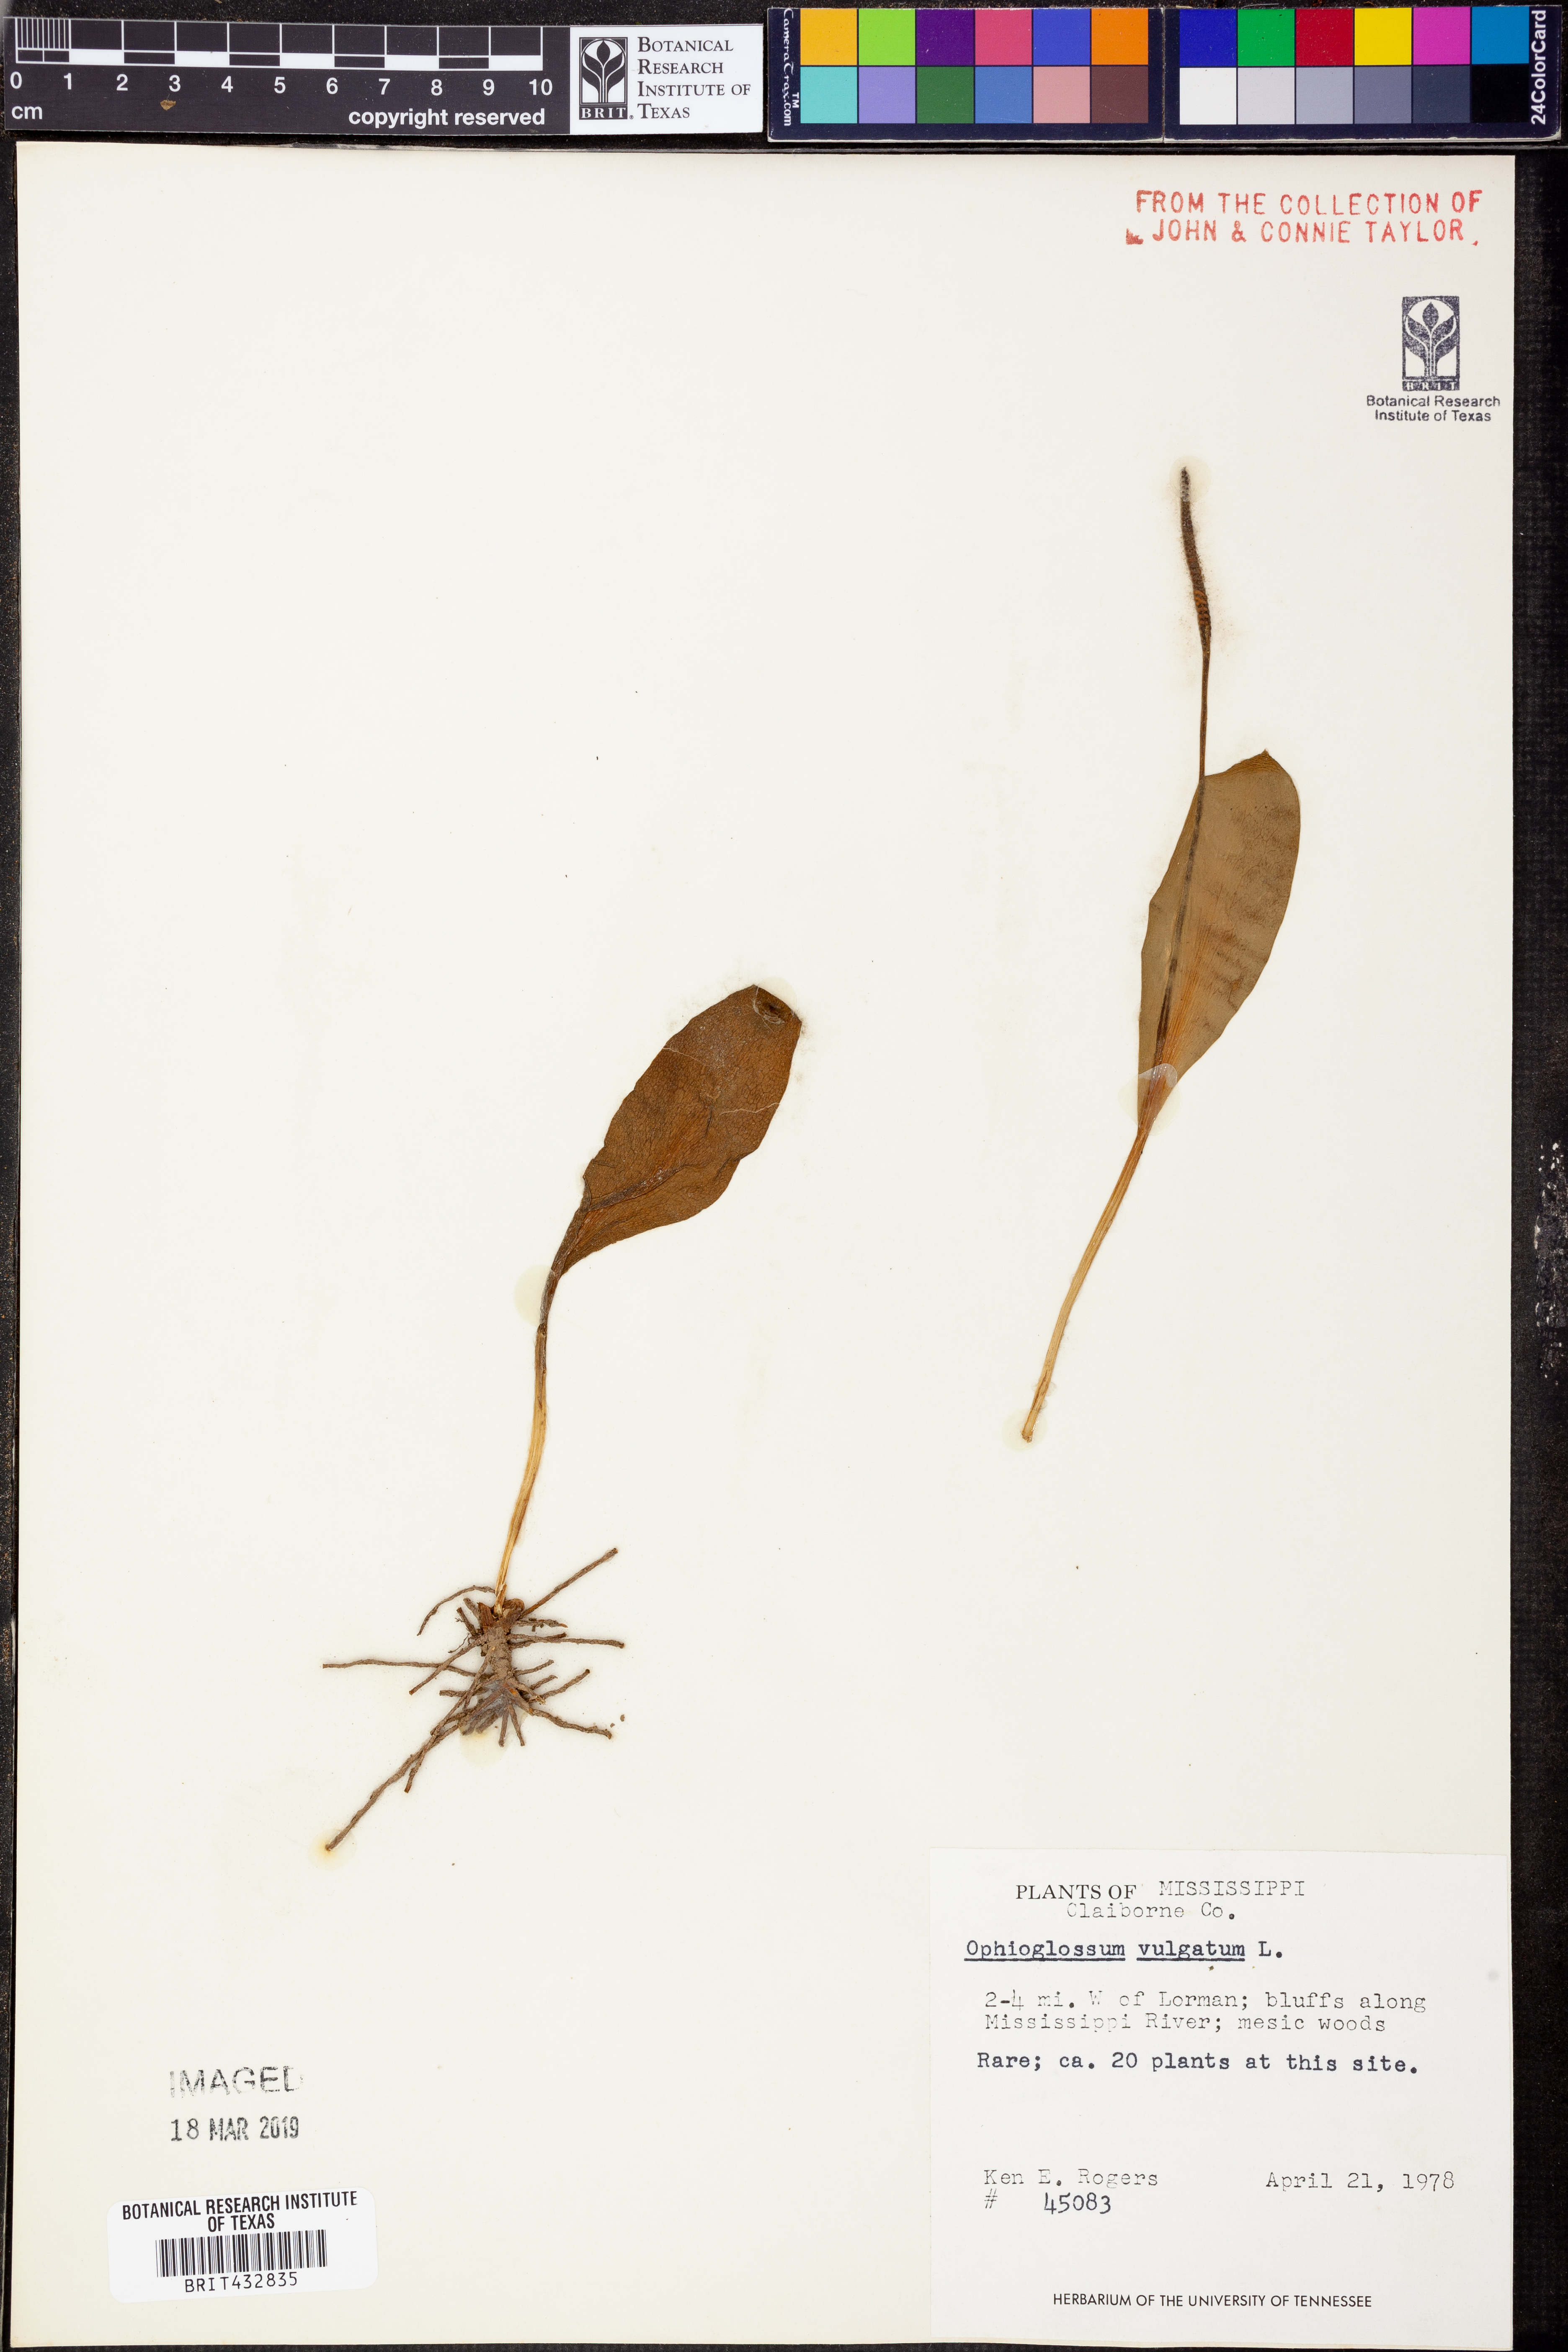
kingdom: Plantae
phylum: Tracheophyta
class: Polypodiopsida
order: Ophioglossales
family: Ophioglossaceae
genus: Ophioglossum
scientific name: Ophioglossum vulgatum
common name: Adder's-tongue
